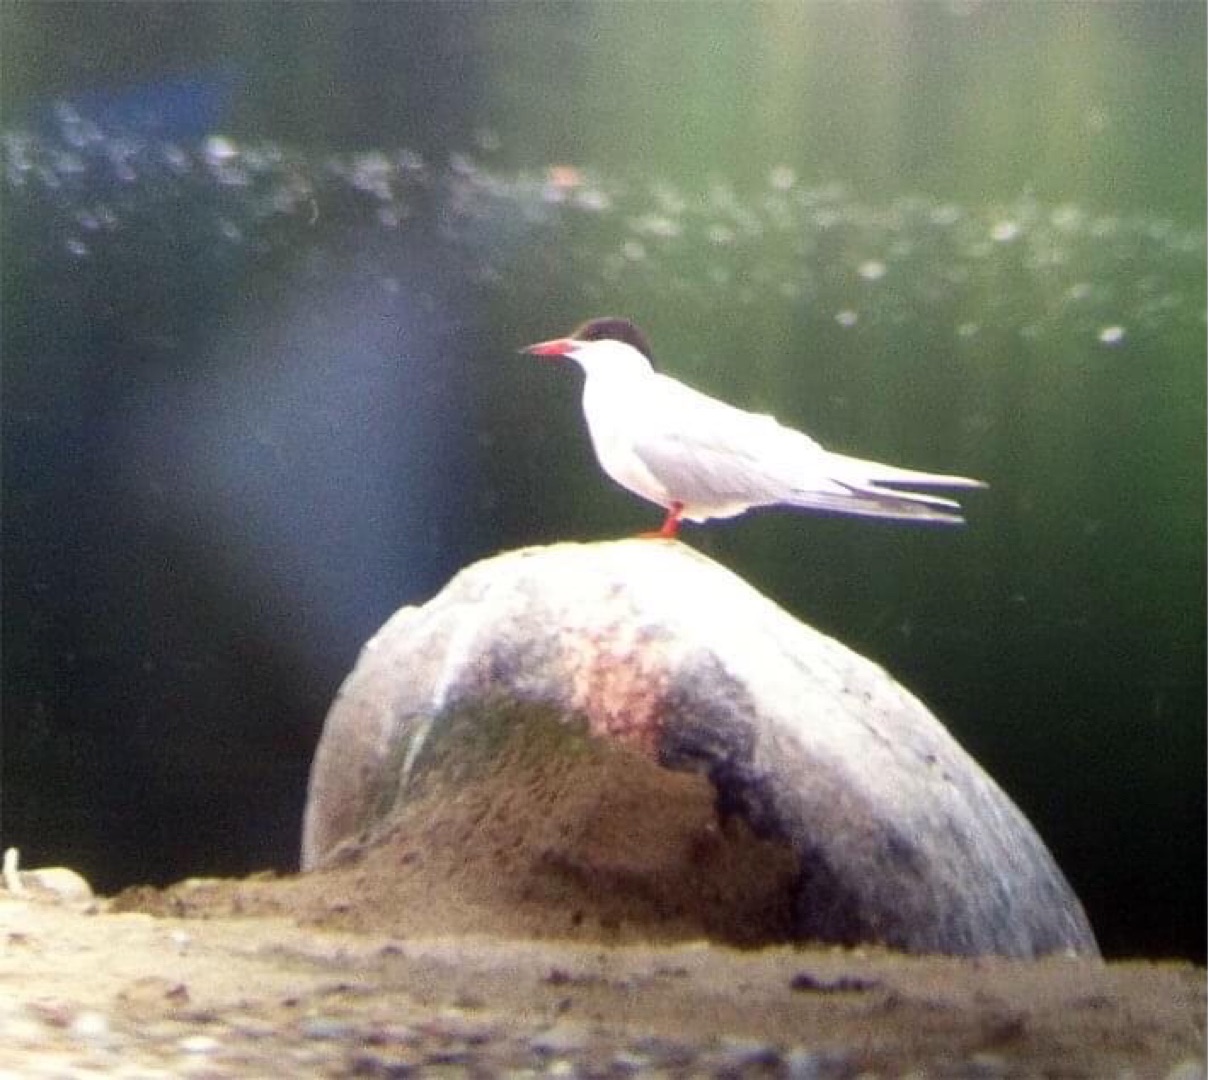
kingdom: Animalia
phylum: Chordata
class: Aves
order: Charadriiformes
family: Laridae
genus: Sterna
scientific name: Sterna hirundo
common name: Fjordterne
